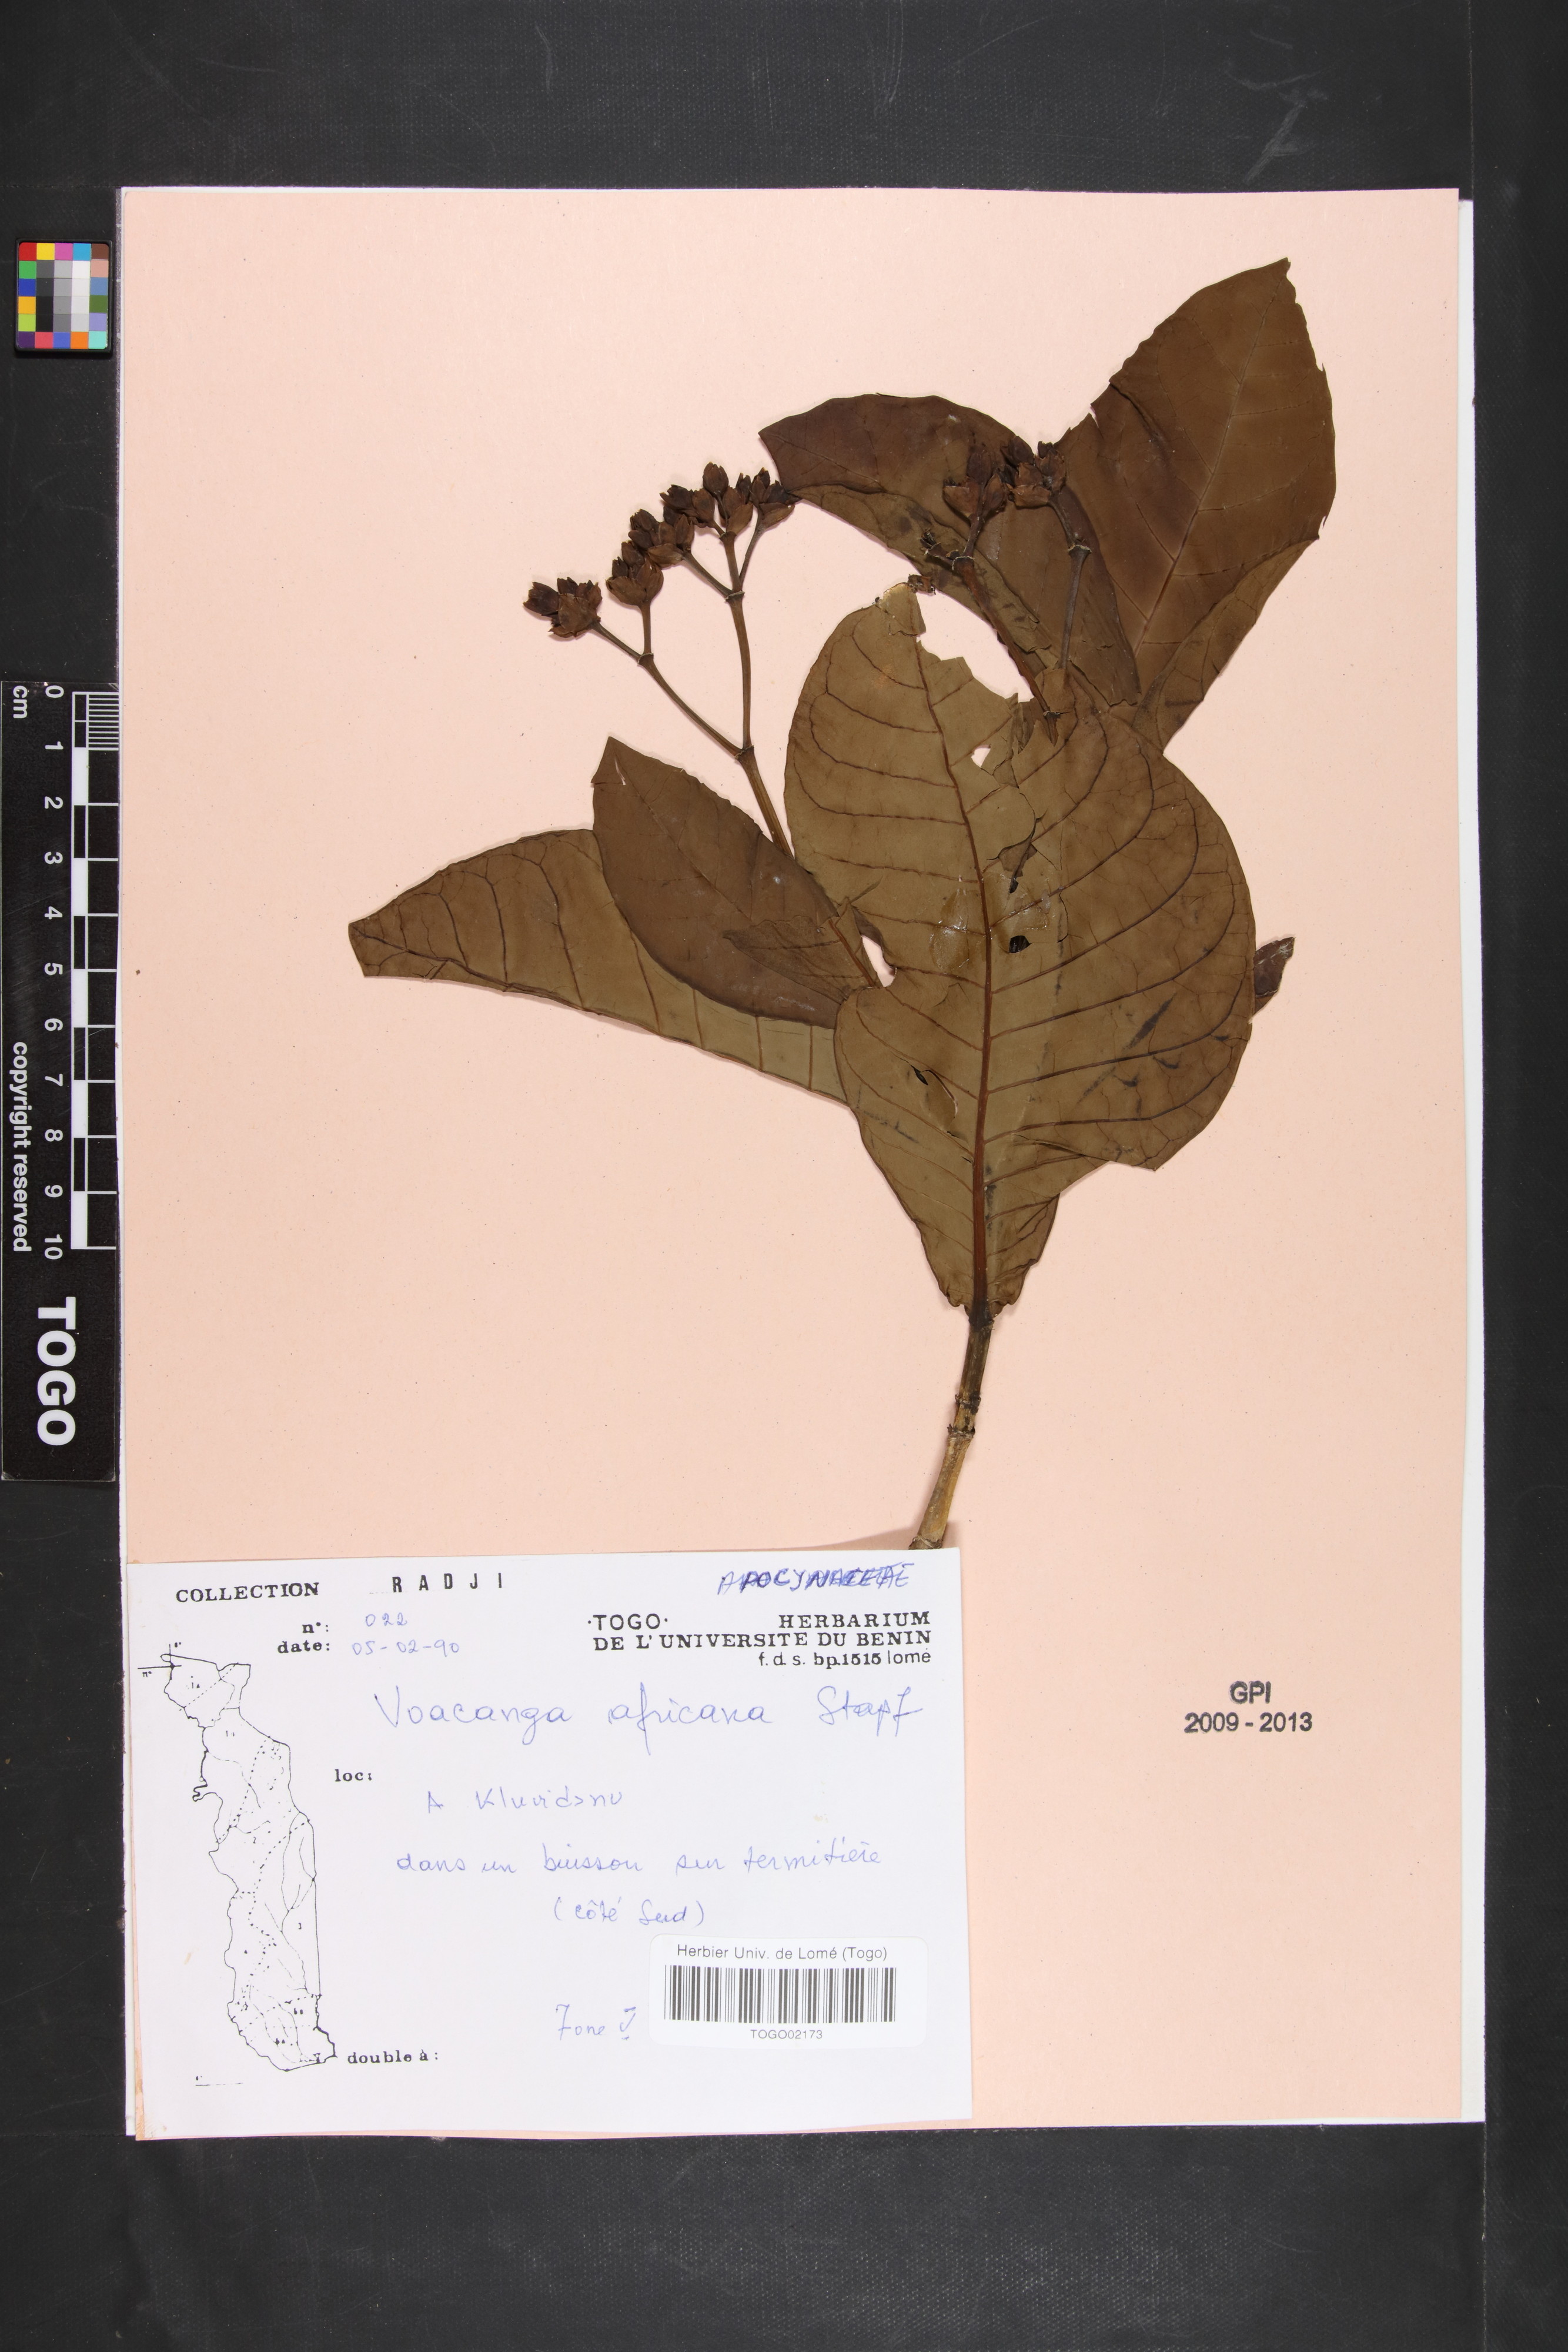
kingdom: Plantae
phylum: Tracheophyta
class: Magnoliopsida
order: Gentianales
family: Apocynaceae
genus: Voacanga
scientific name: Voacanga africana
